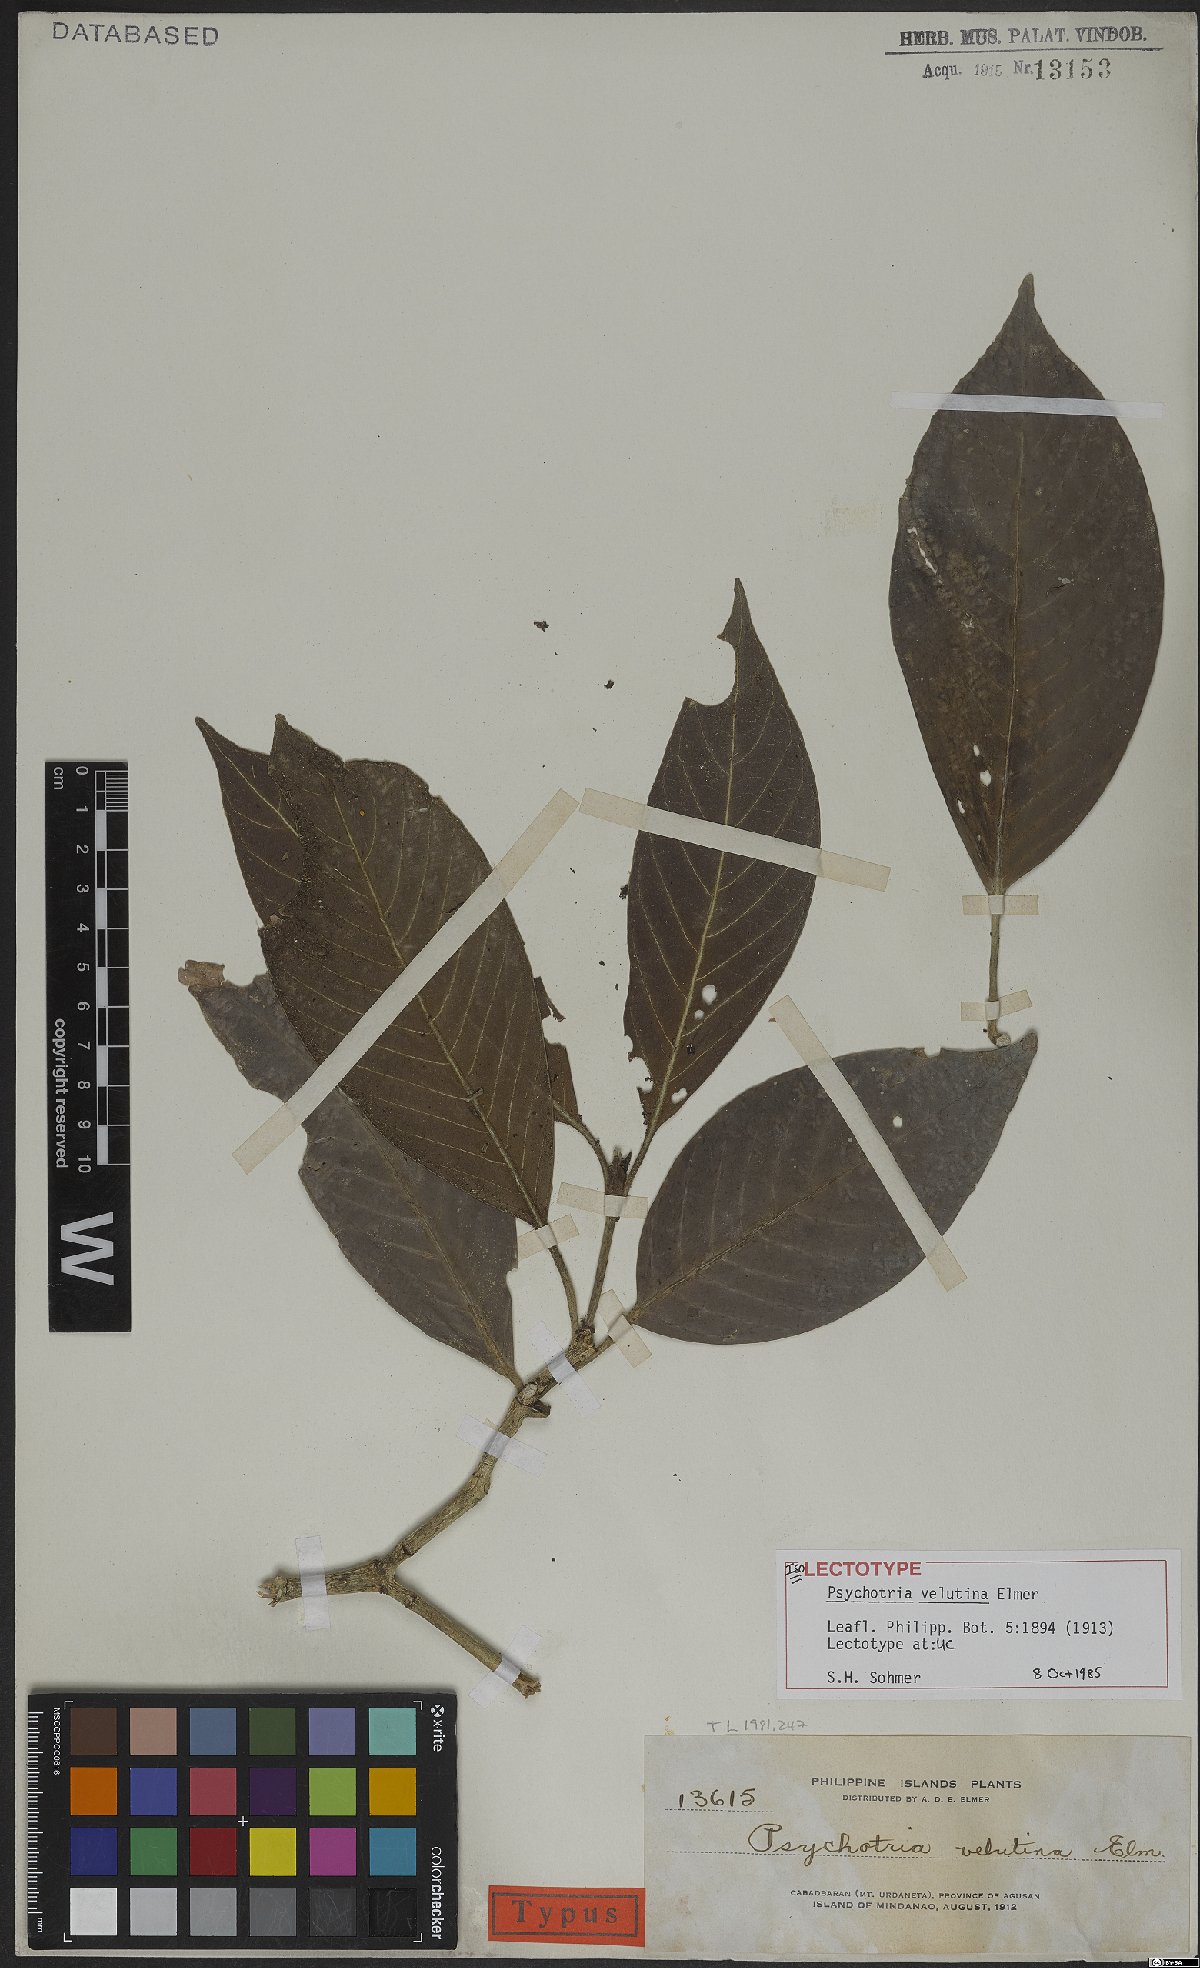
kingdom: Plantae
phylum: Tracheophyta
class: Magnoliopsida
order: Gentianales
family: Rubiaceae
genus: Psychotria
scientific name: Psychotria velutina
